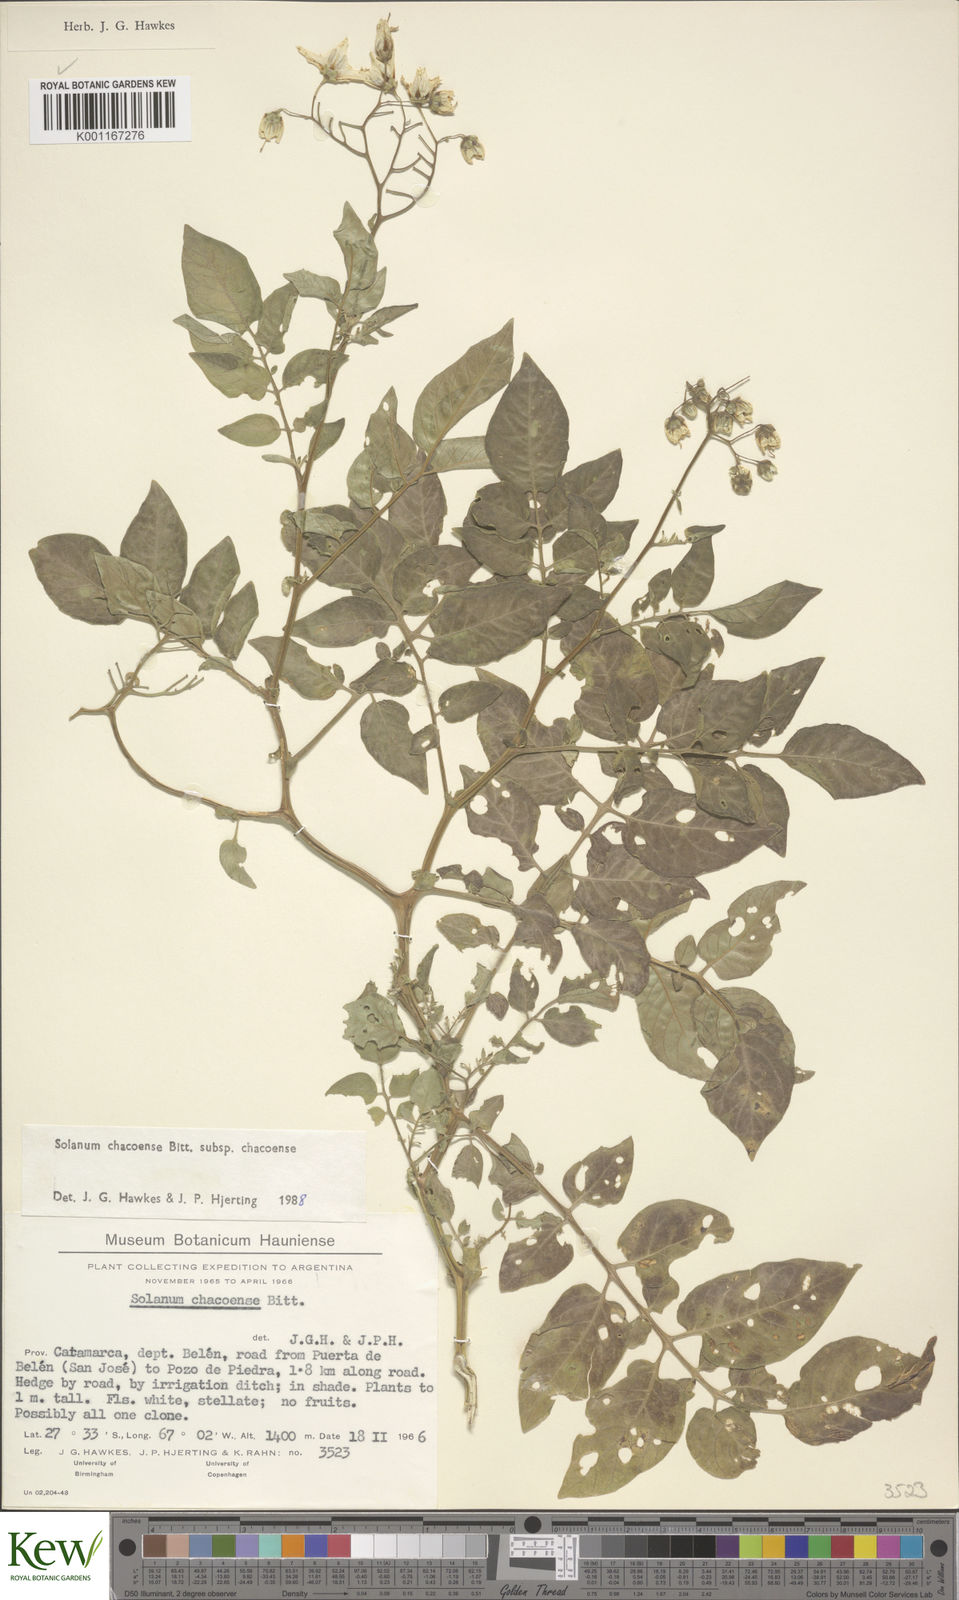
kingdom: Plantae
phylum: Tracheophyta
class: Magnoliopsida
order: Solanales
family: Solanaceae
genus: Solanum
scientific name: Solanum chacoense
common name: Chaco potato
